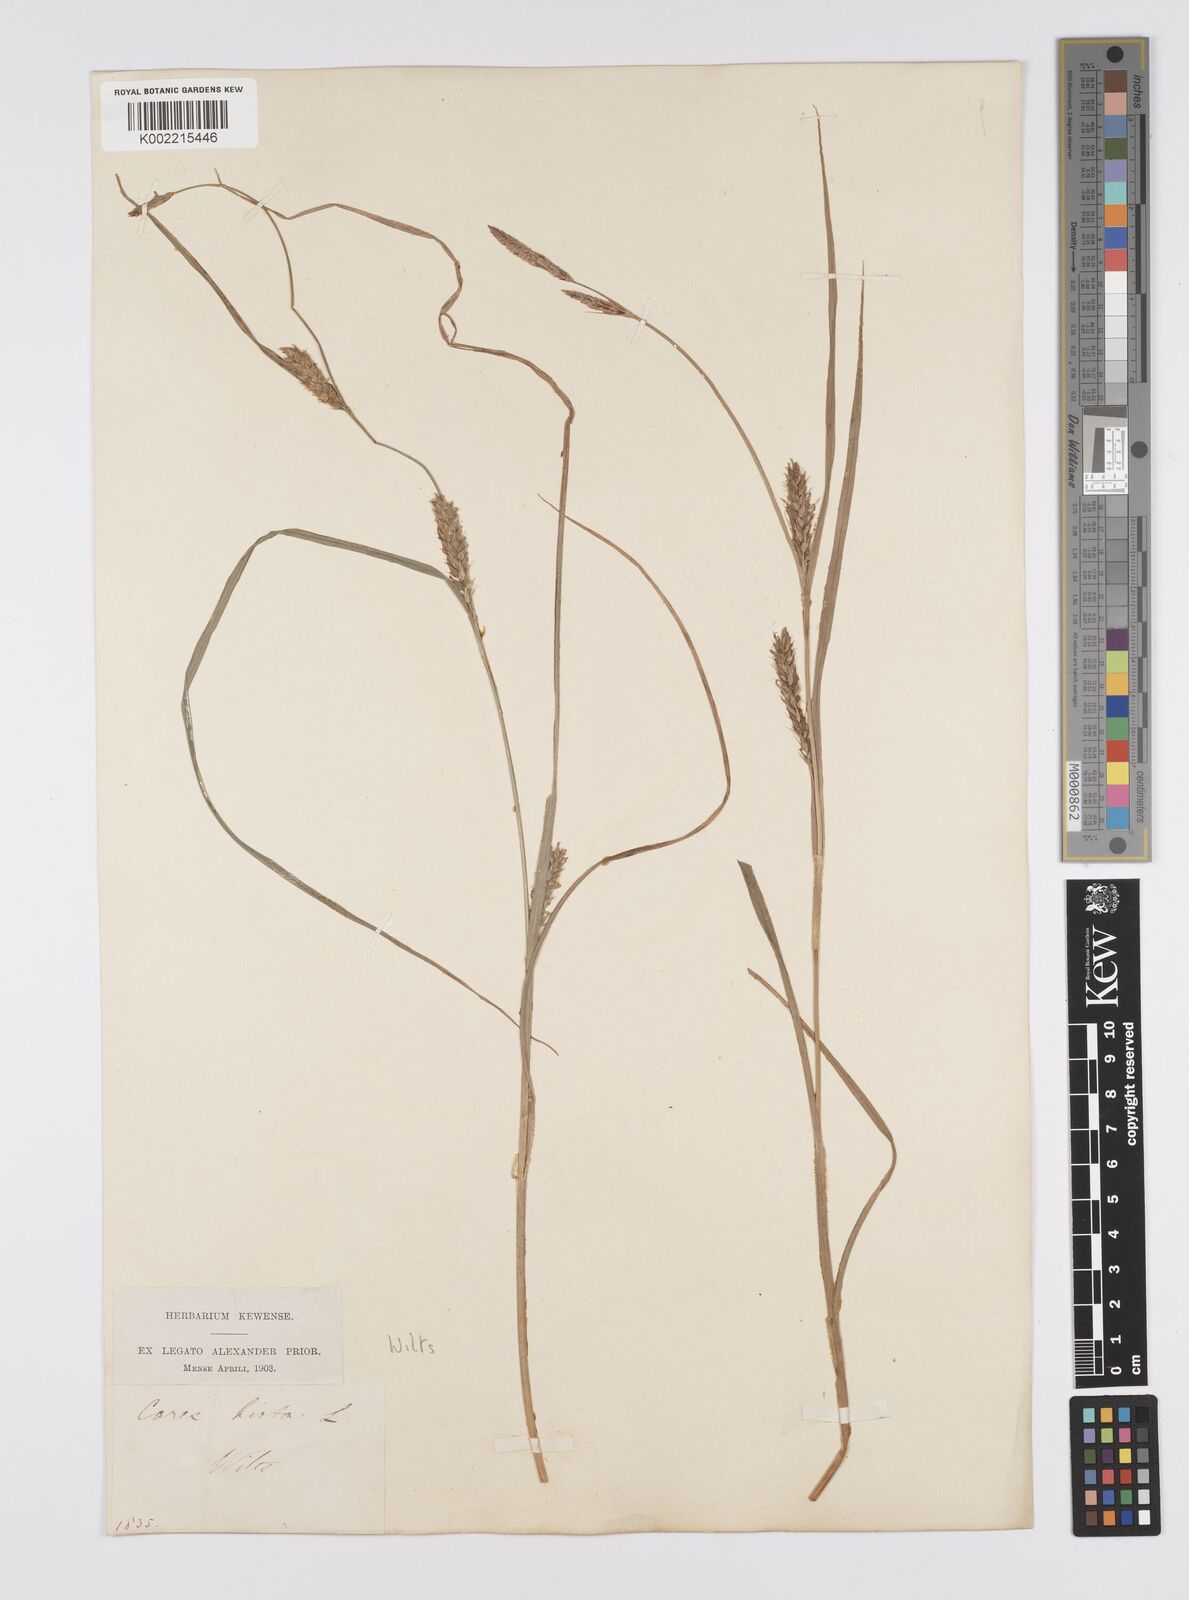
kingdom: Plantae
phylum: Tracheophyta
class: Liliopsida
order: Poales
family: Cyperaceae
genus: Carex
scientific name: Carex hirta
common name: Hairy sedge
